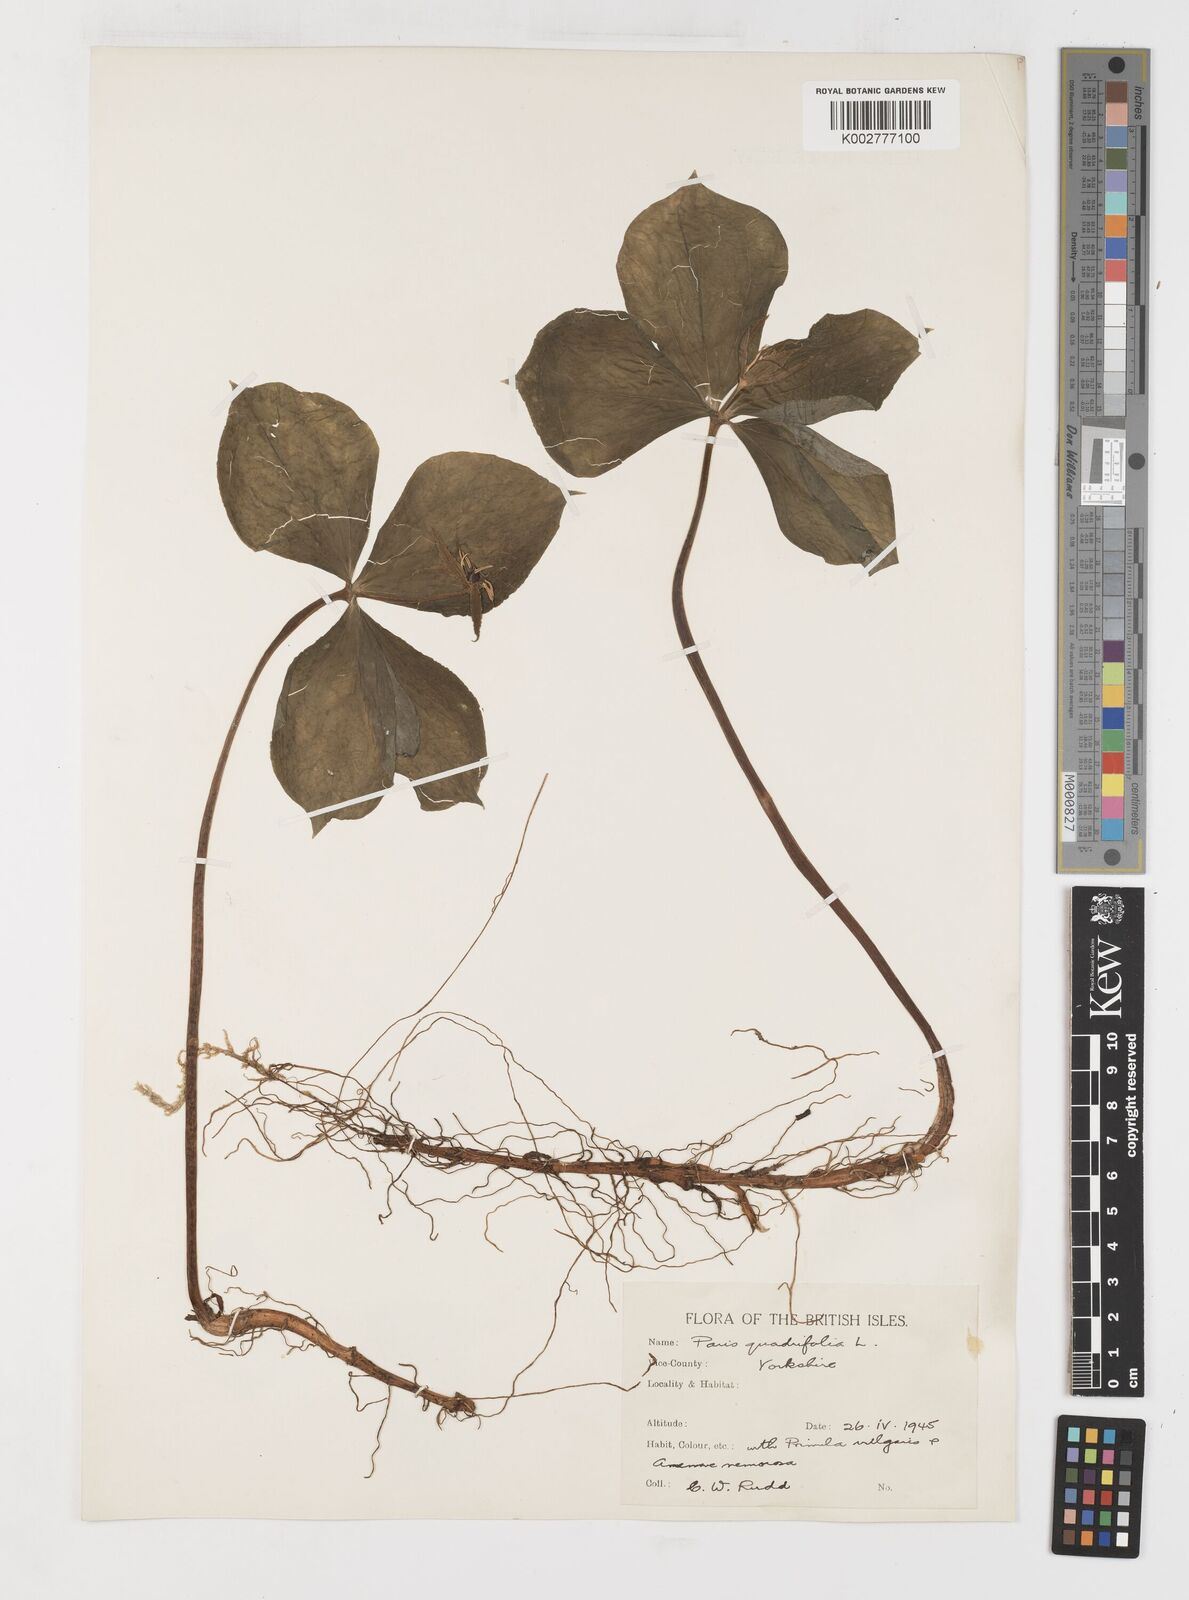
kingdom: Plantae
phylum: Tracheophyta
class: Liliopsida
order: Liliales
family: Melanthiaceae
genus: Paris
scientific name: Paris quadrifolia
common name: Herb-paris
